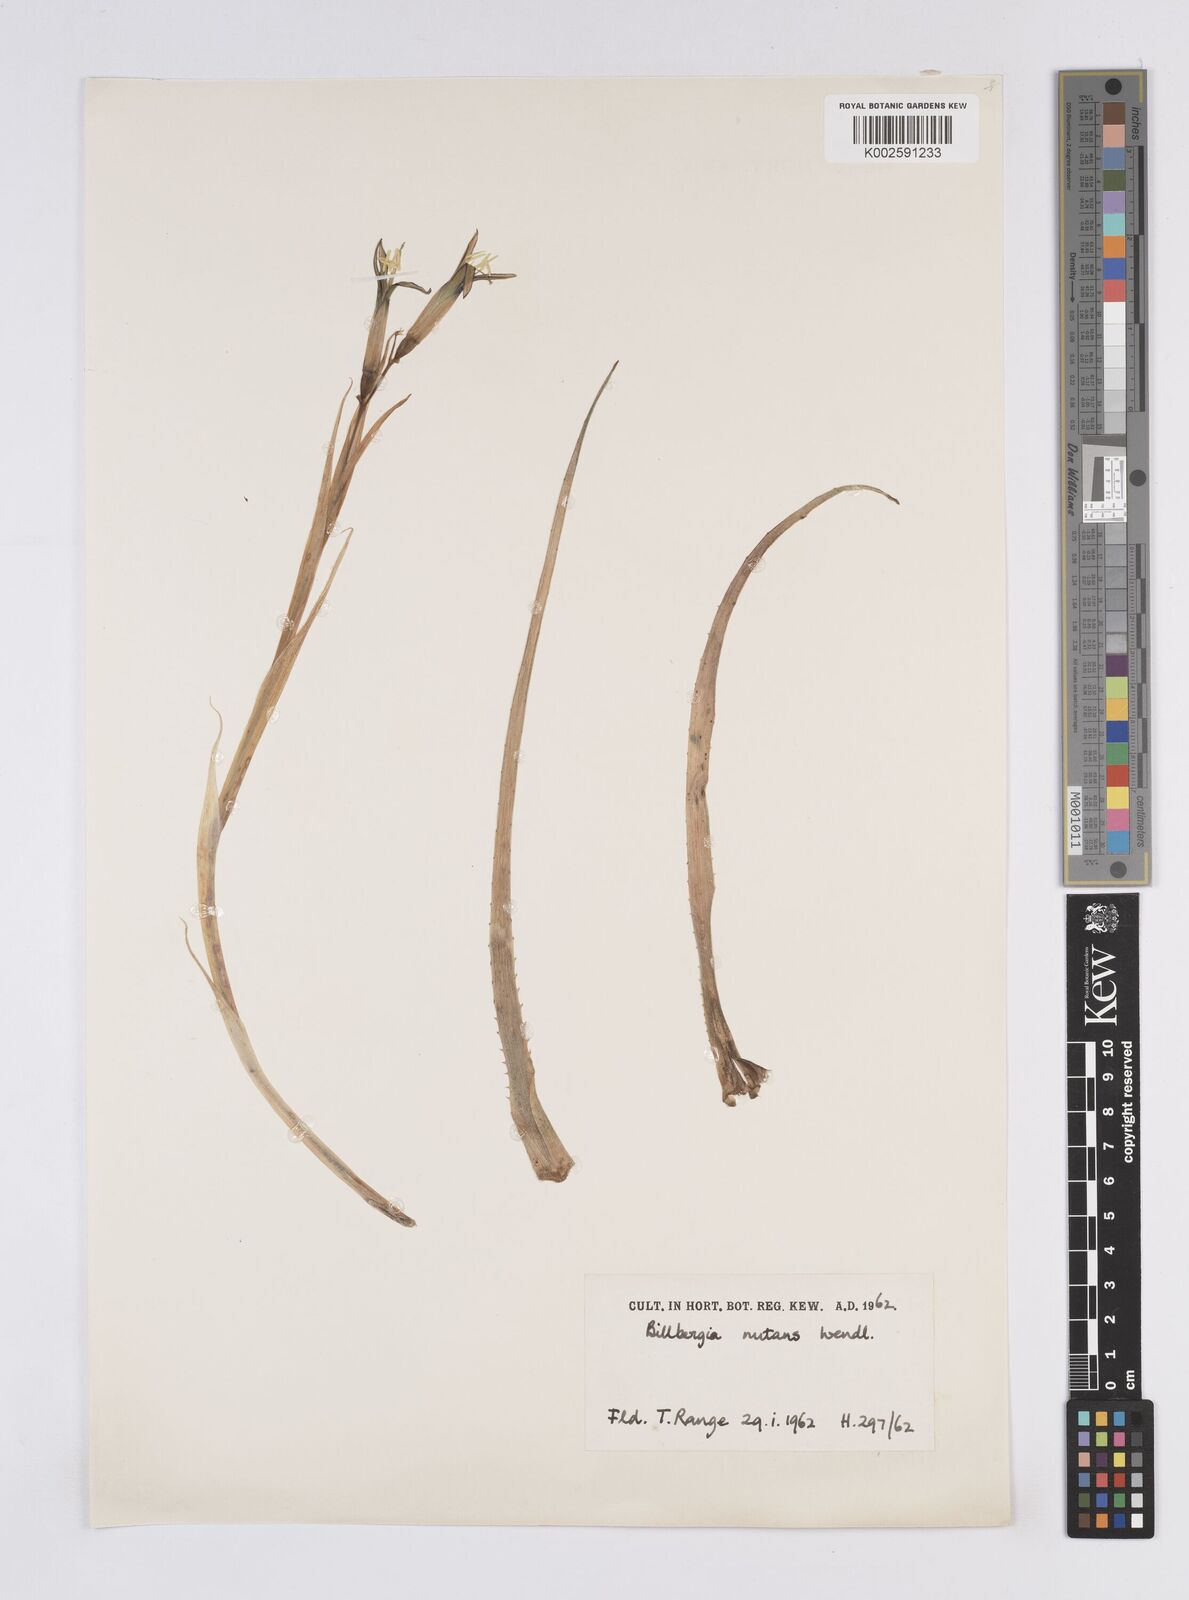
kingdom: Plantae
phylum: Tracheophyta
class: Liliopsida
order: Poales
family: Bromeliaceae
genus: Billbergia
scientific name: Billbergia nutans
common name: Friendship-plant
